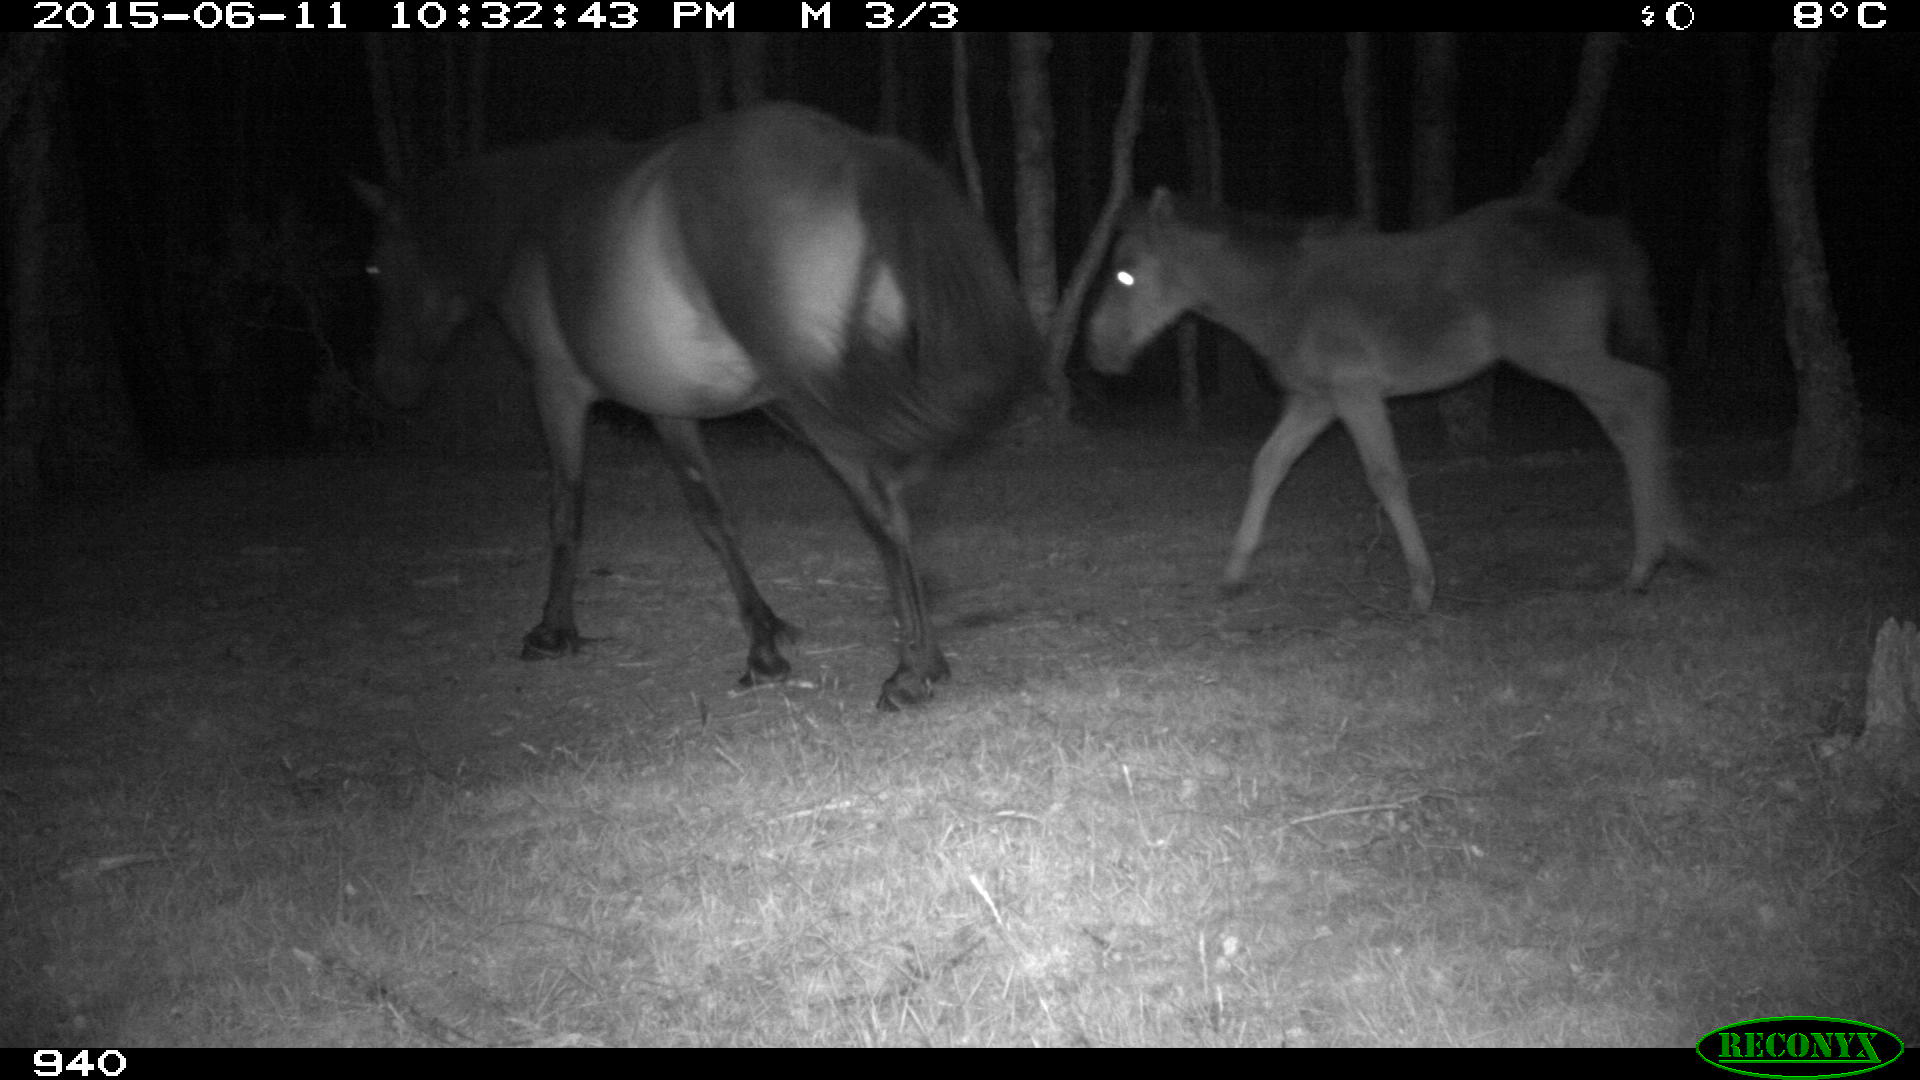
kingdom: Animalia
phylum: Chordata
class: Mammalia
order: Perissodactyla
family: Equidae
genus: Equus
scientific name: Equus caballus
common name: Horse
